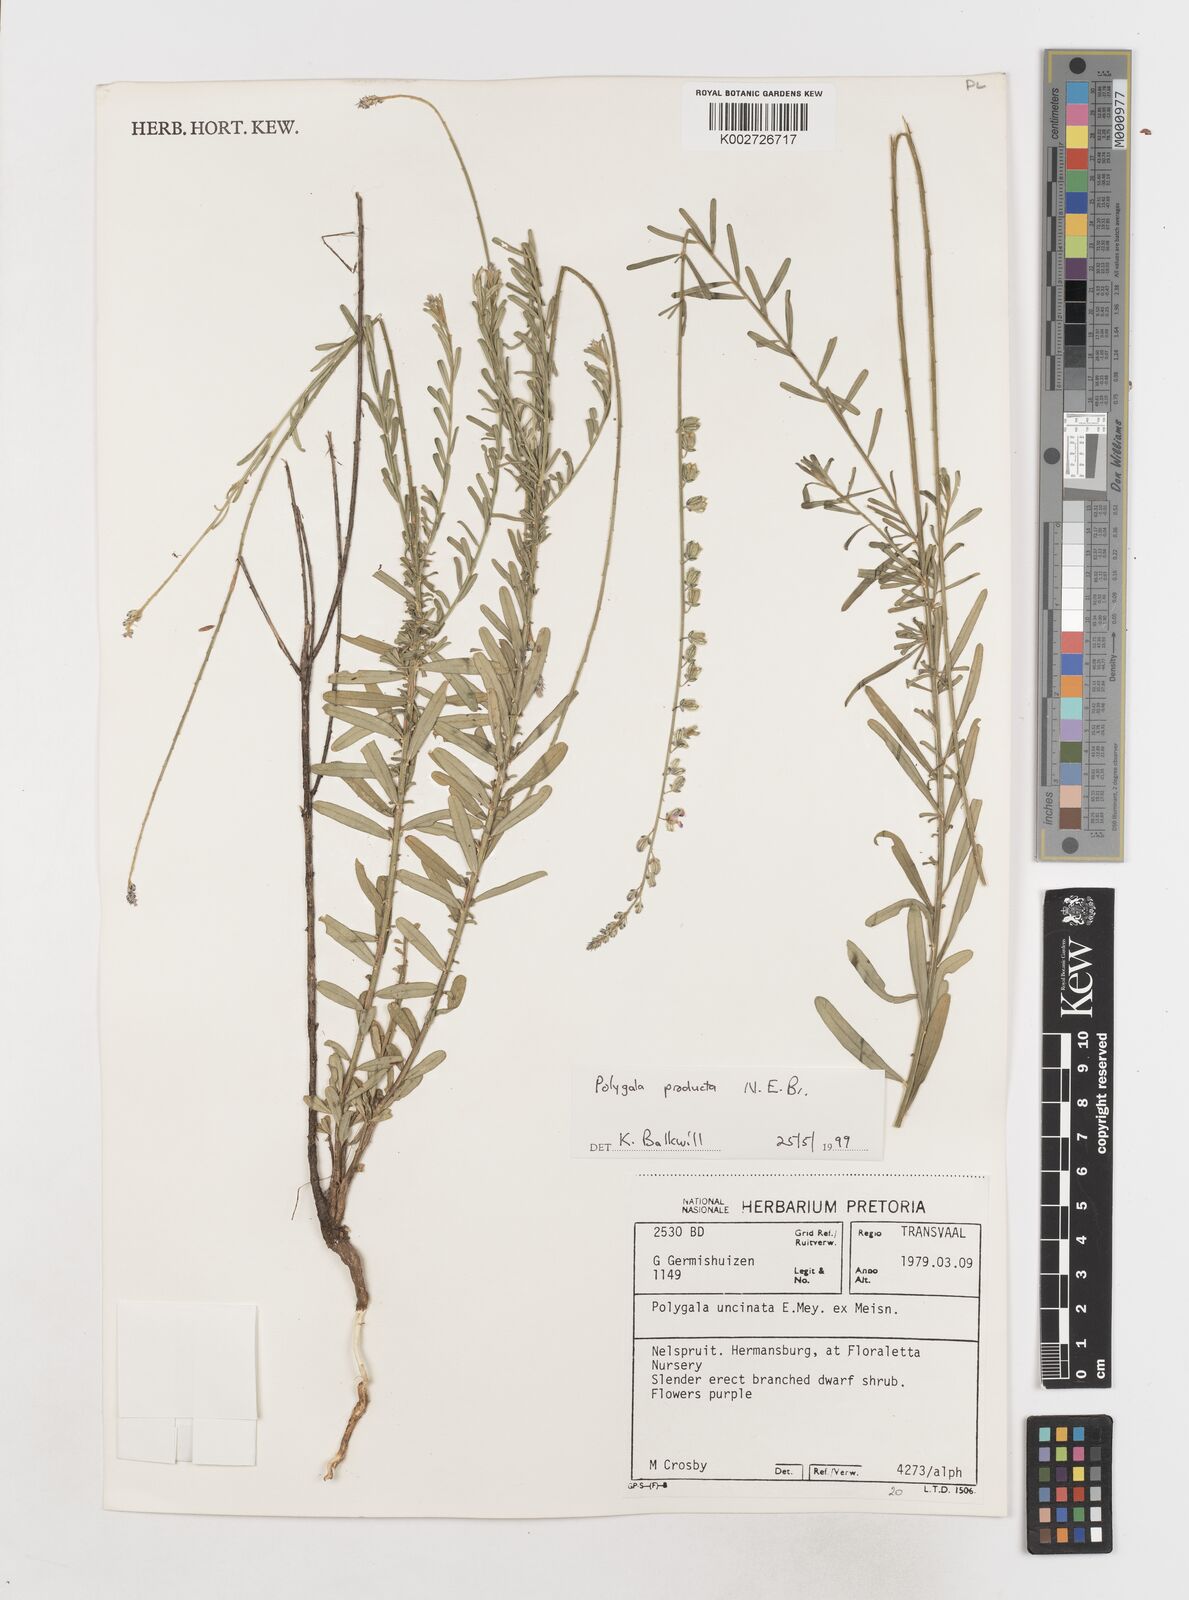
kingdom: Plantae
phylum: Tracheophyta
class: Magnoliopsida
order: Fabales
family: Polygalaceae
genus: Polygala
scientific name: Polygala producta
